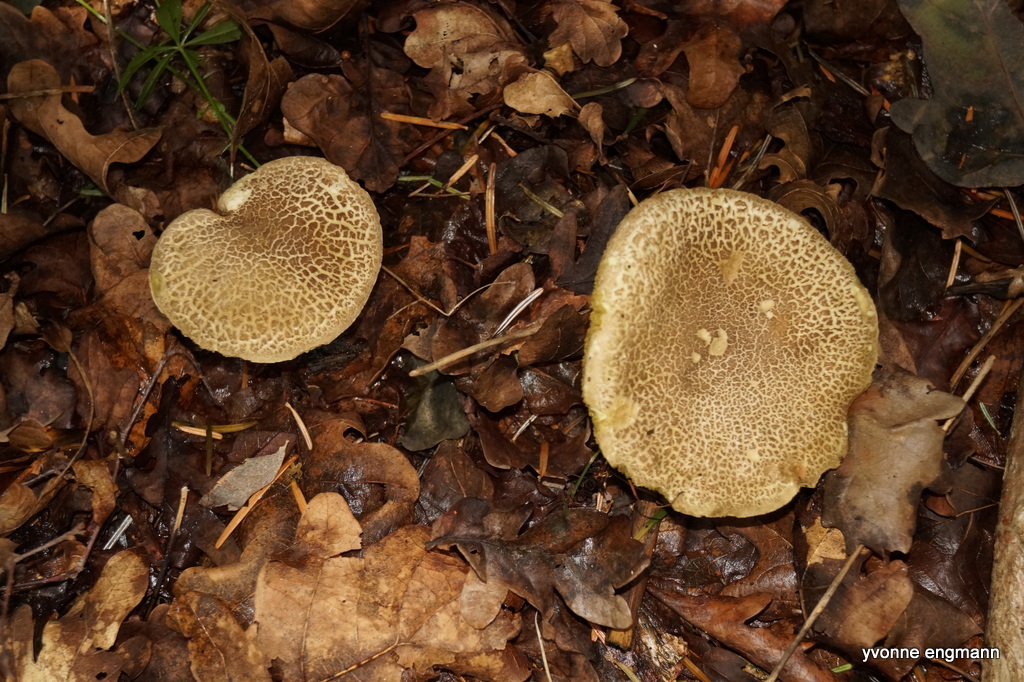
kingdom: Fungi
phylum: Basidiomycota
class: Agaricomycetes
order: Boletales
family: Boletaceae
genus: Xerocomellus
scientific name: Xerocomellus porosporus
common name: hvidsprukken rørhat
